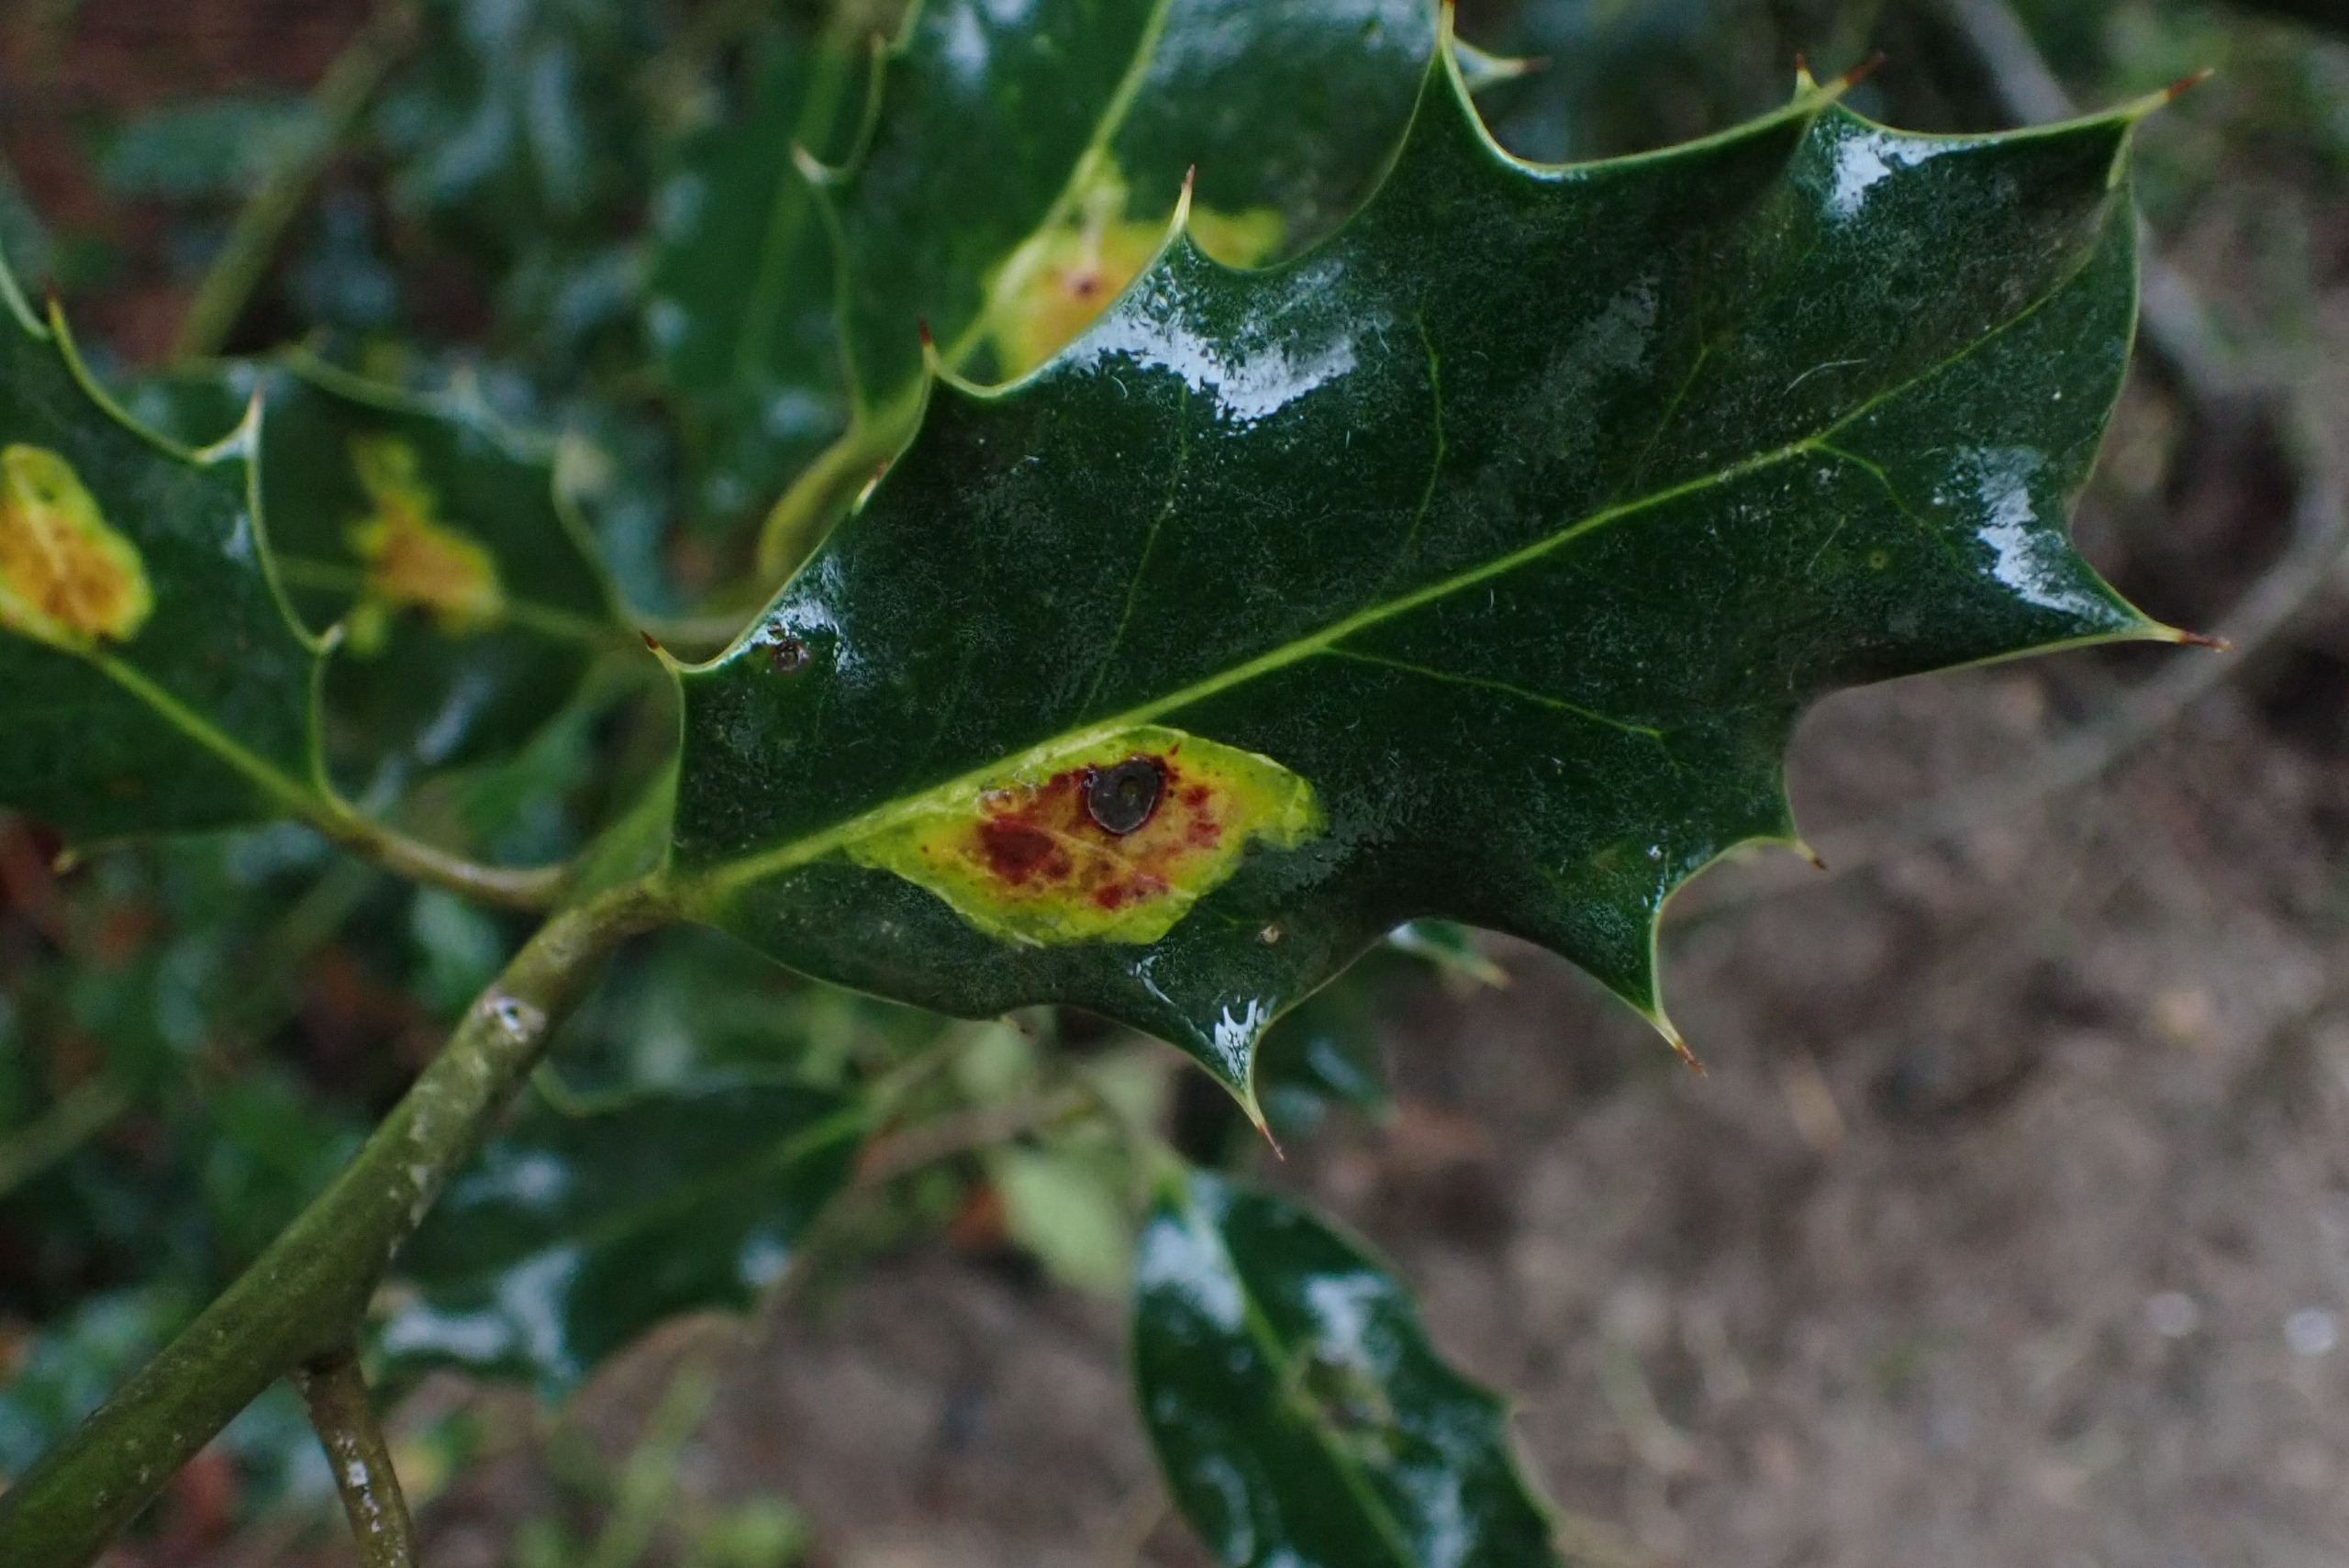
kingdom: Animalia
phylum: Arthropoda
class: Insecta
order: Diptera
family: Agromyzidae
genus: Phytomyza
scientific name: Phytomyza ilicis
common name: Kristtornminérflue
